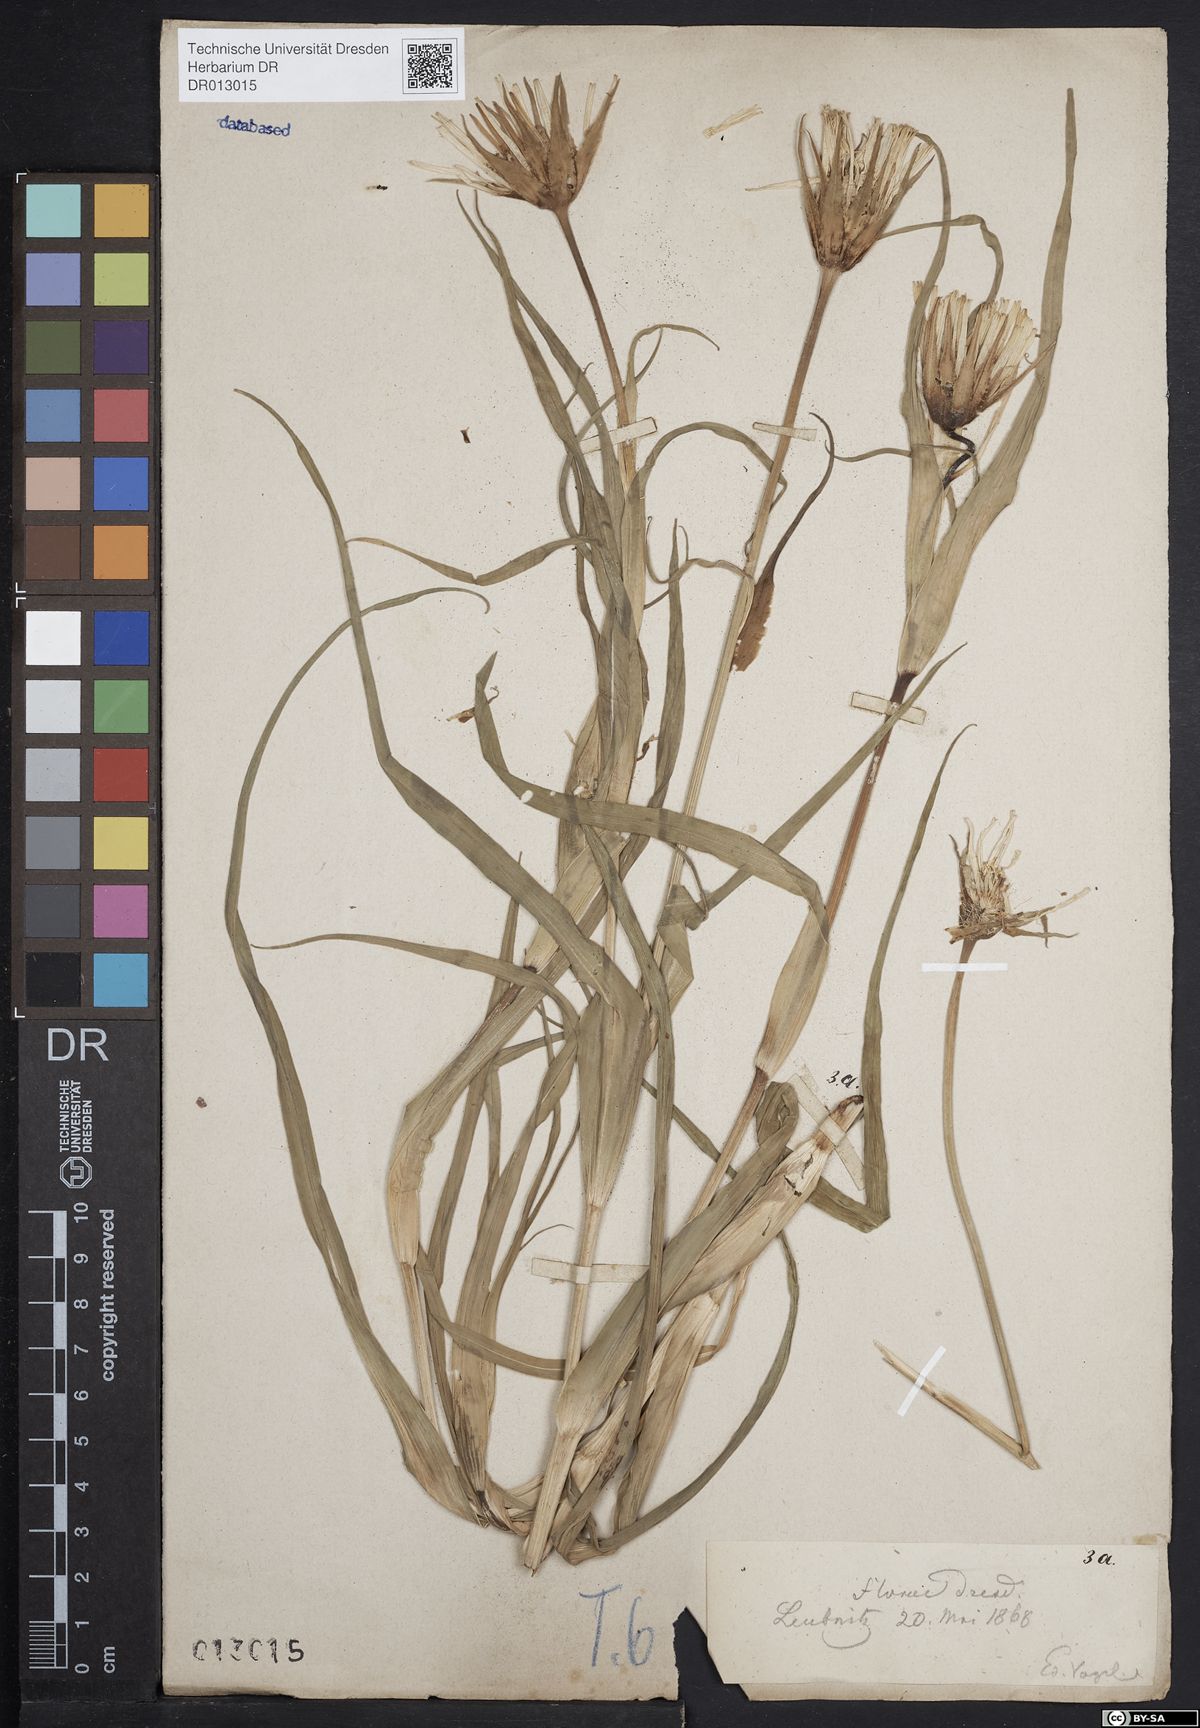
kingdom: Plantae
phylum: Tracheophyta
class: Magnoliopsida
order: Asterales
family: Asteraceae
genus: Tragopogon
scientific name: Tragopogon pratensis
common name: Goat's-beard
